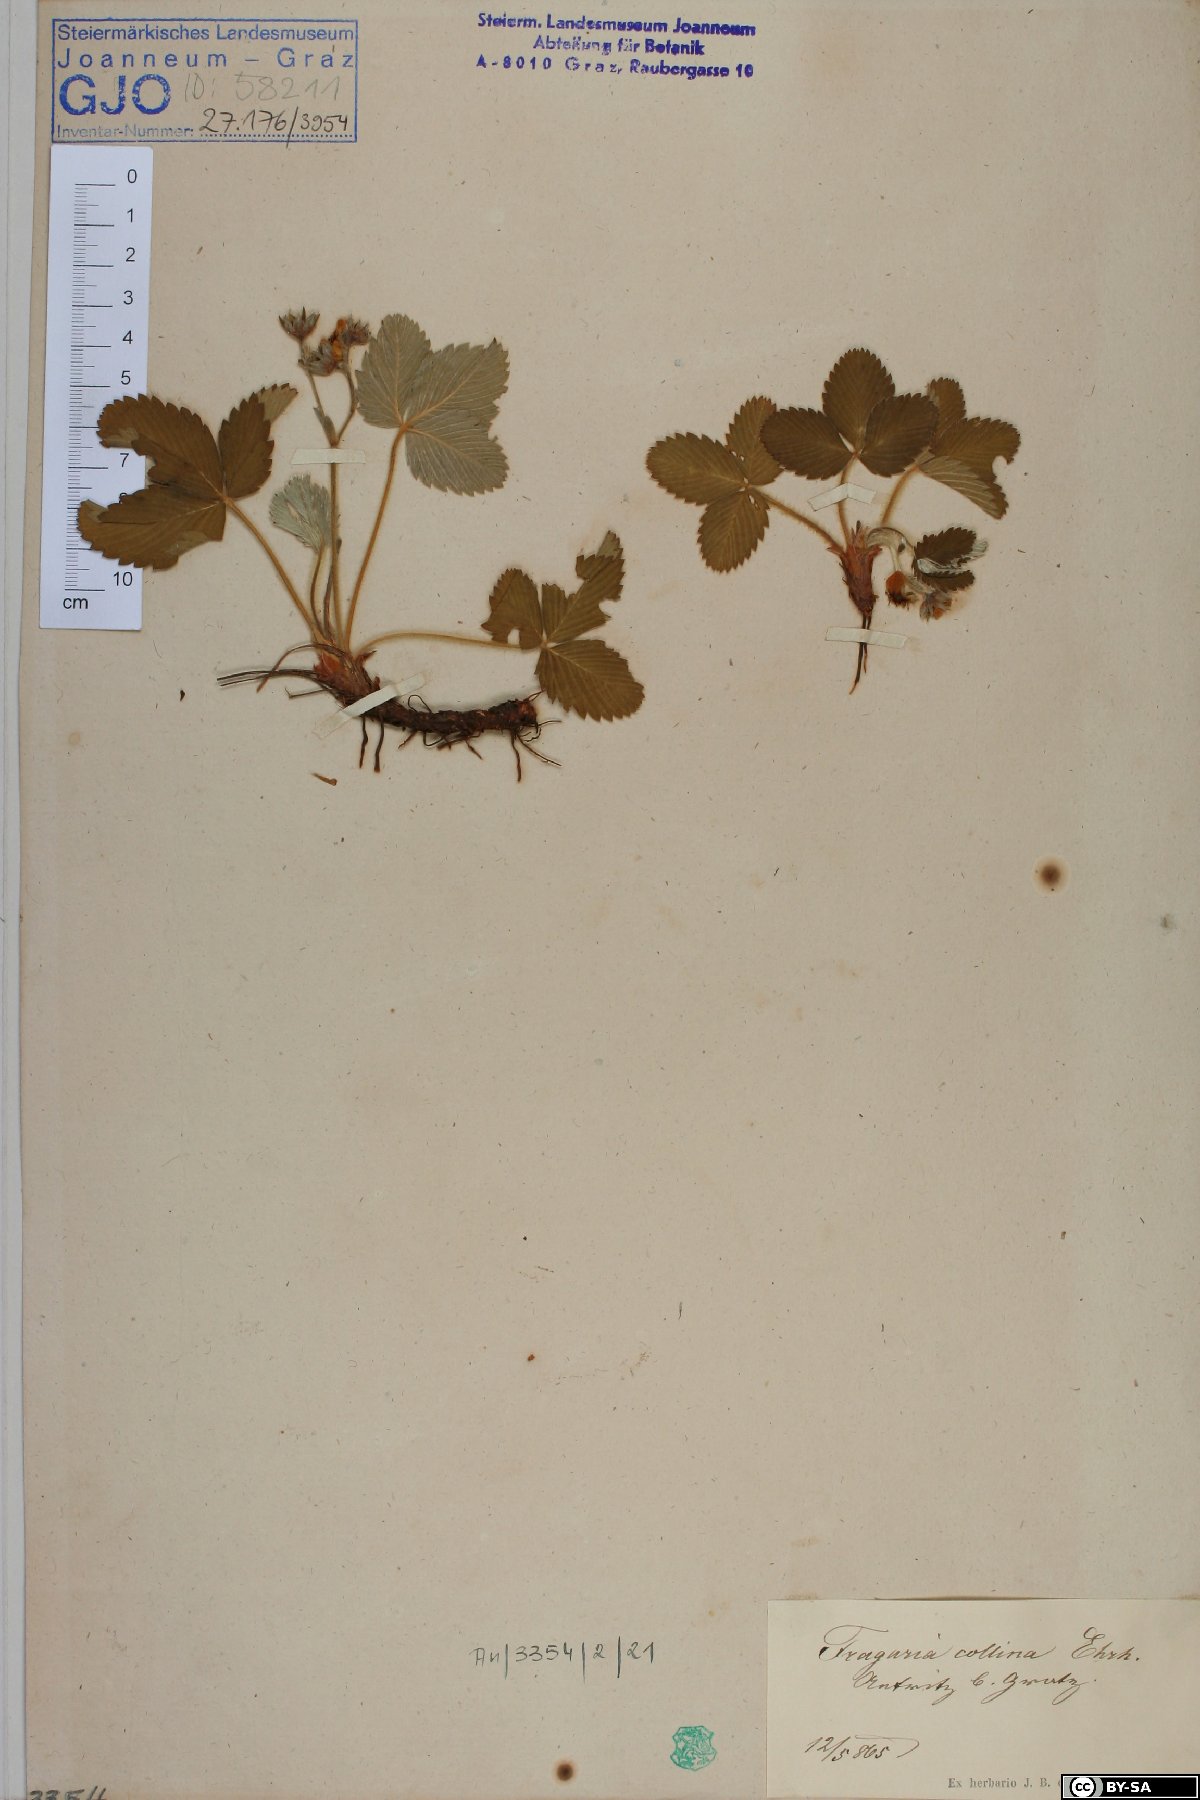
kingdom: Plantae
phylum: Tracheophyta
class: Magnoliopsida
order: Rosales
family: Rosaceae
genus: Fragaria
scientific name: Fragaria viridis
